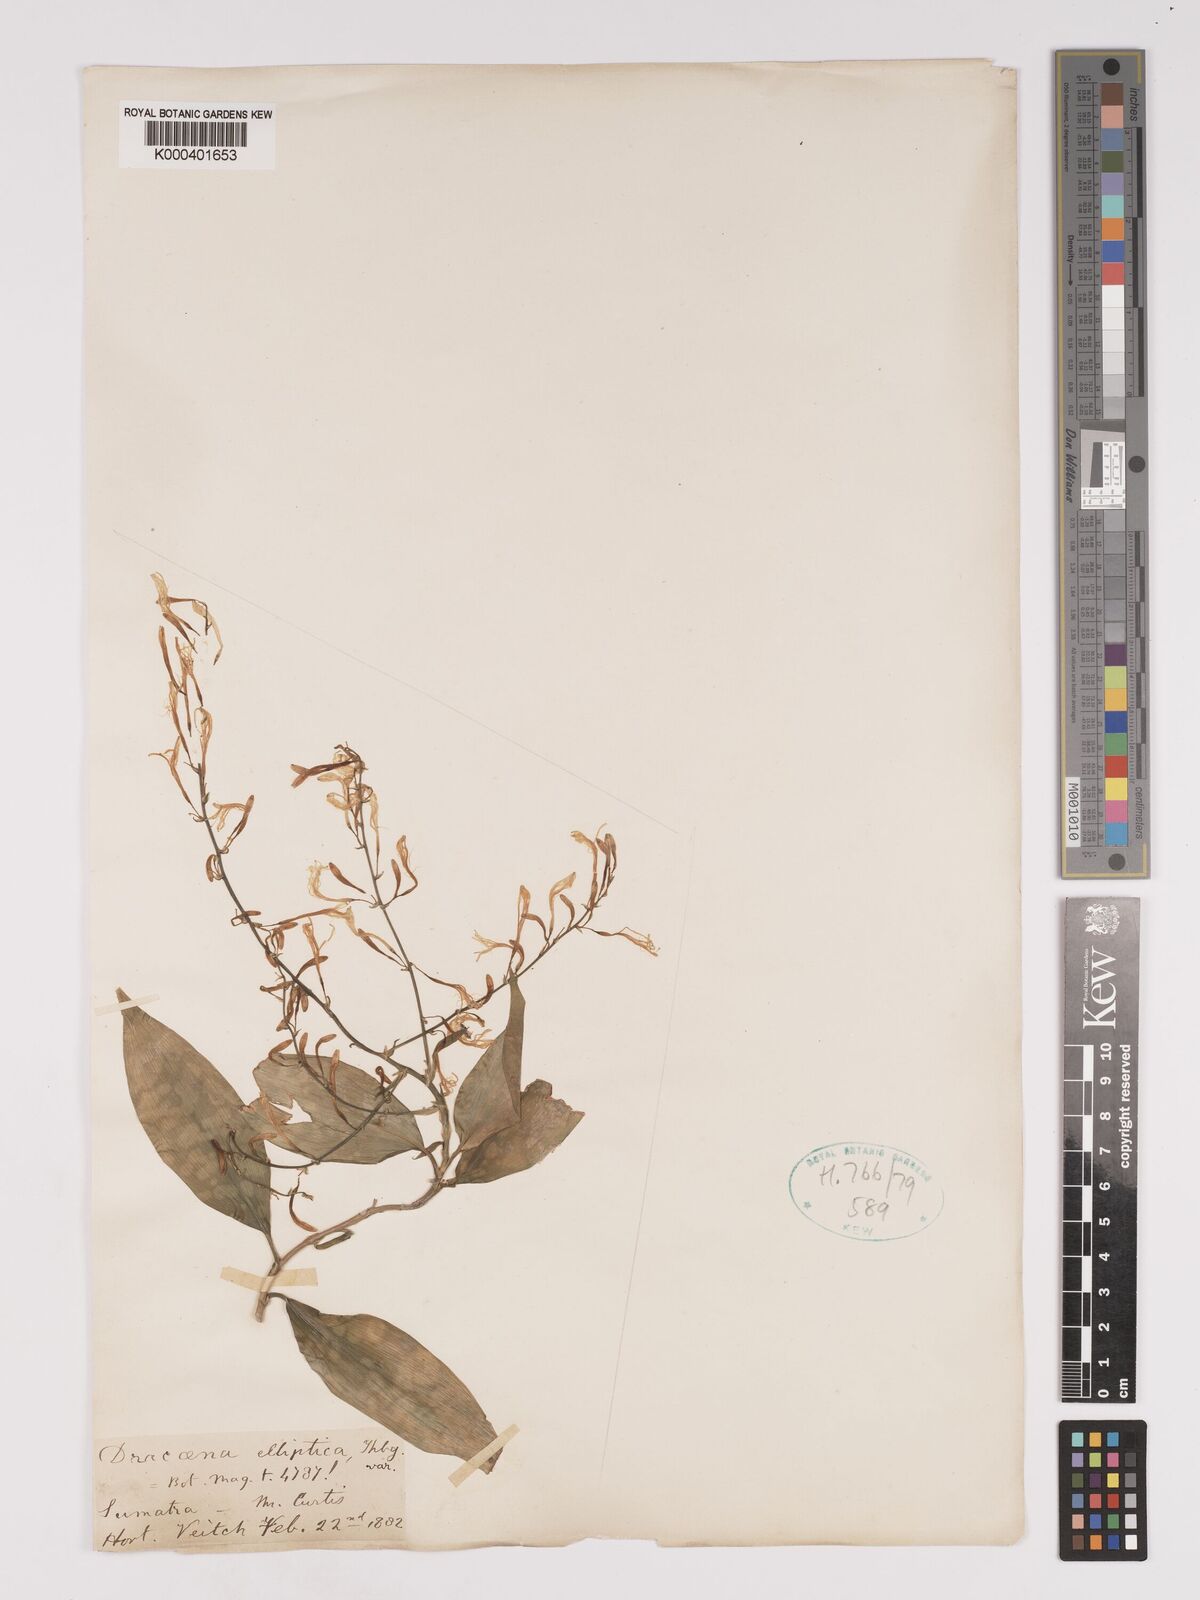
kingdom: Plantae
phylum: Tracheophyta
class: Liliopsida
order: Asparagales
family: Asparagaceae
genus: Dracaena
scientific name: Dracaena elliptica
